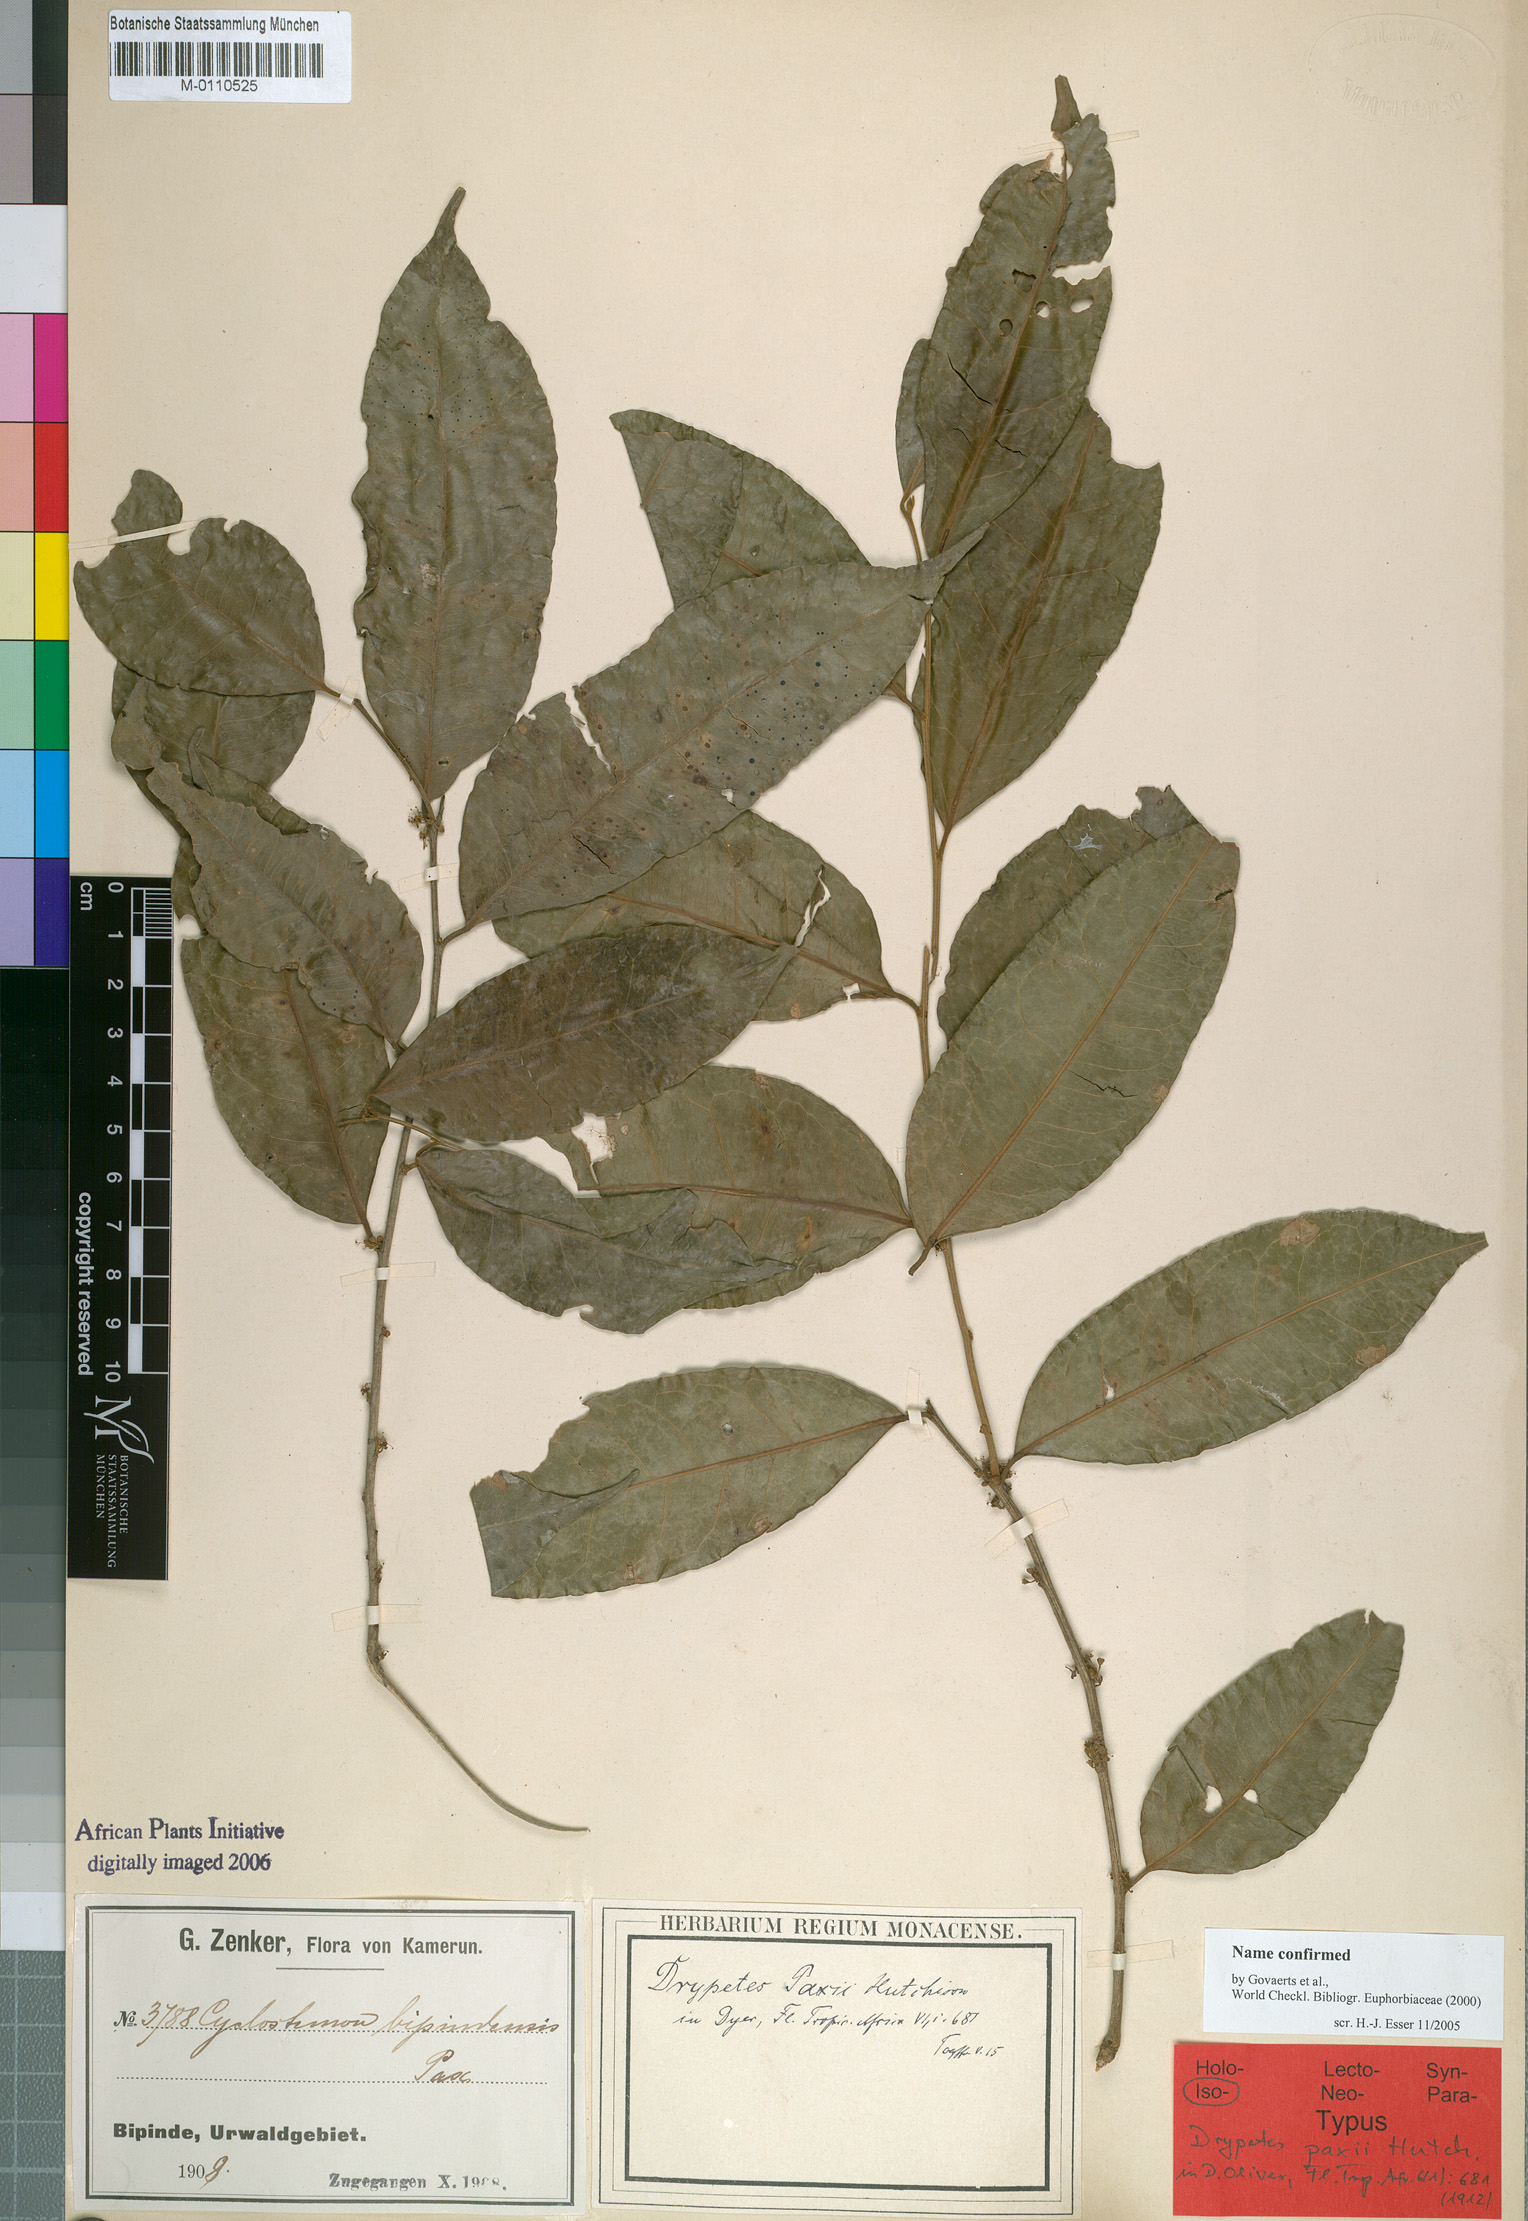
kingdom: Plantae
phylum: Tracheophyta
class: Magnoliopsida
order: Malpighiales
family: Putranjivaceae
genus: Drypetes
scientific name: Drypetes paxii
